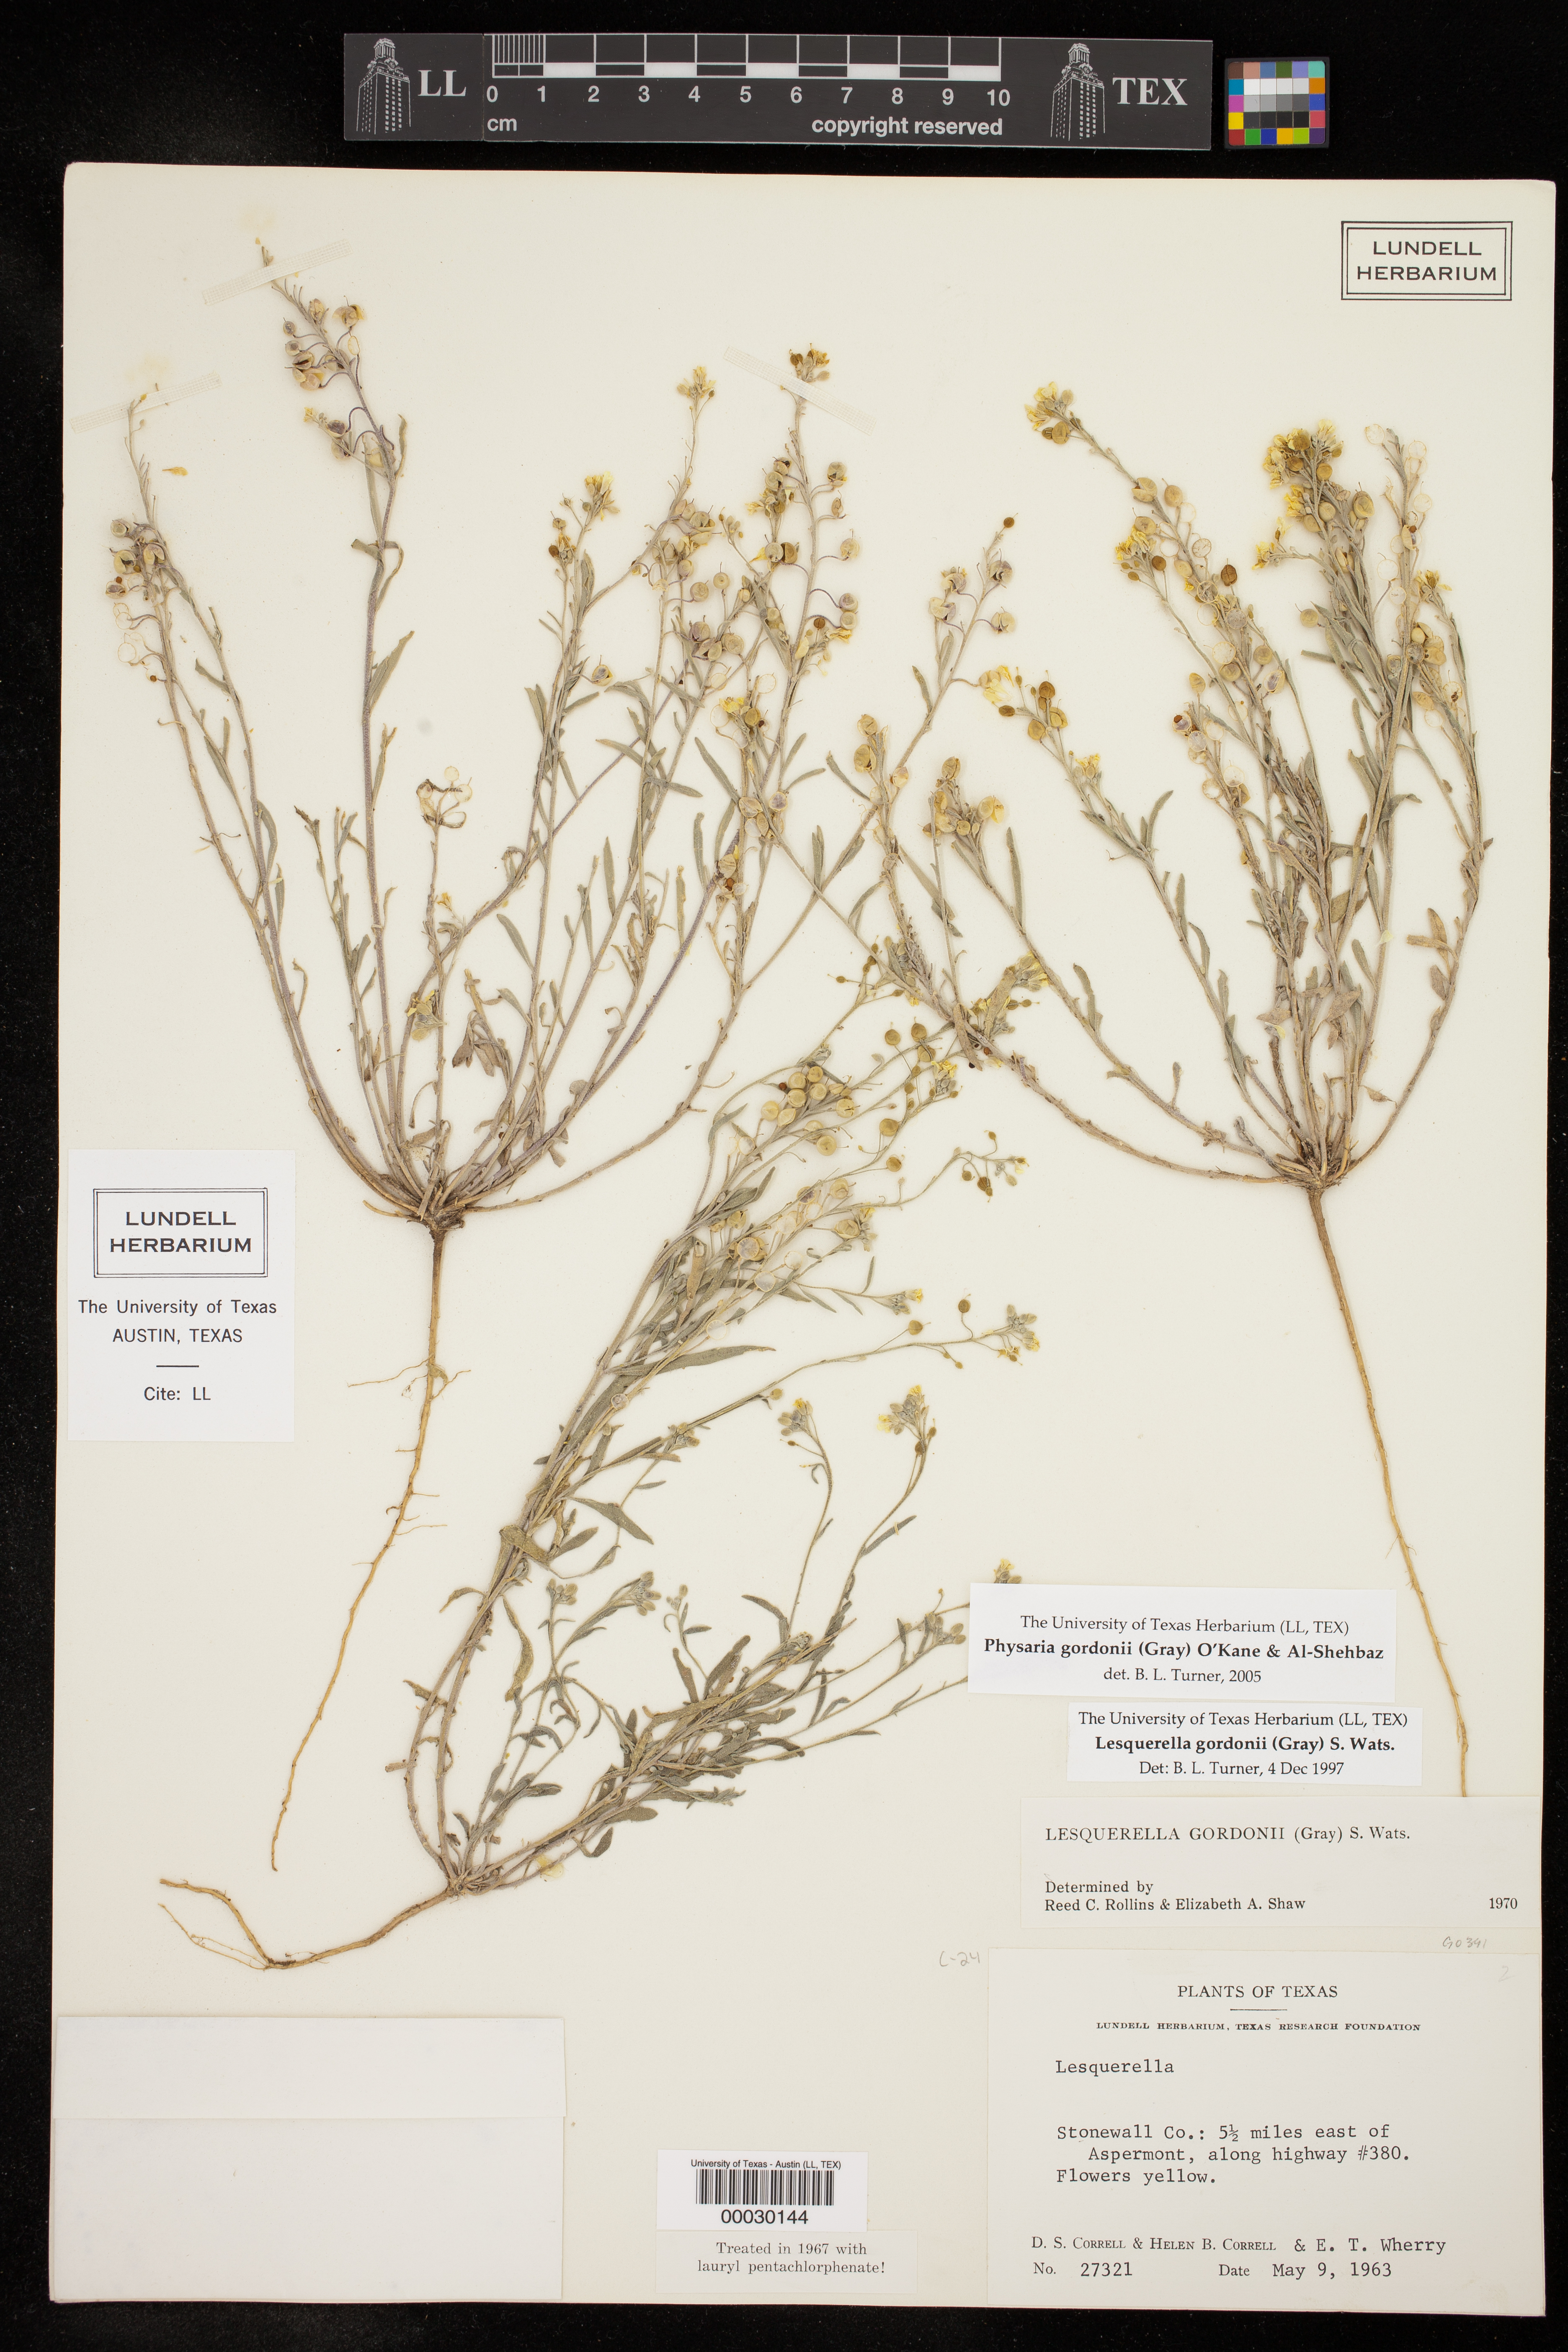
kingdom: Plantae
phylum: Tracheophyta
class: Magnoliopsida
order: Brassicales
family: Brassicaceae
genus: Physaria
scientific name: Physaria gordonii
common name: Gordon's bladderpod
